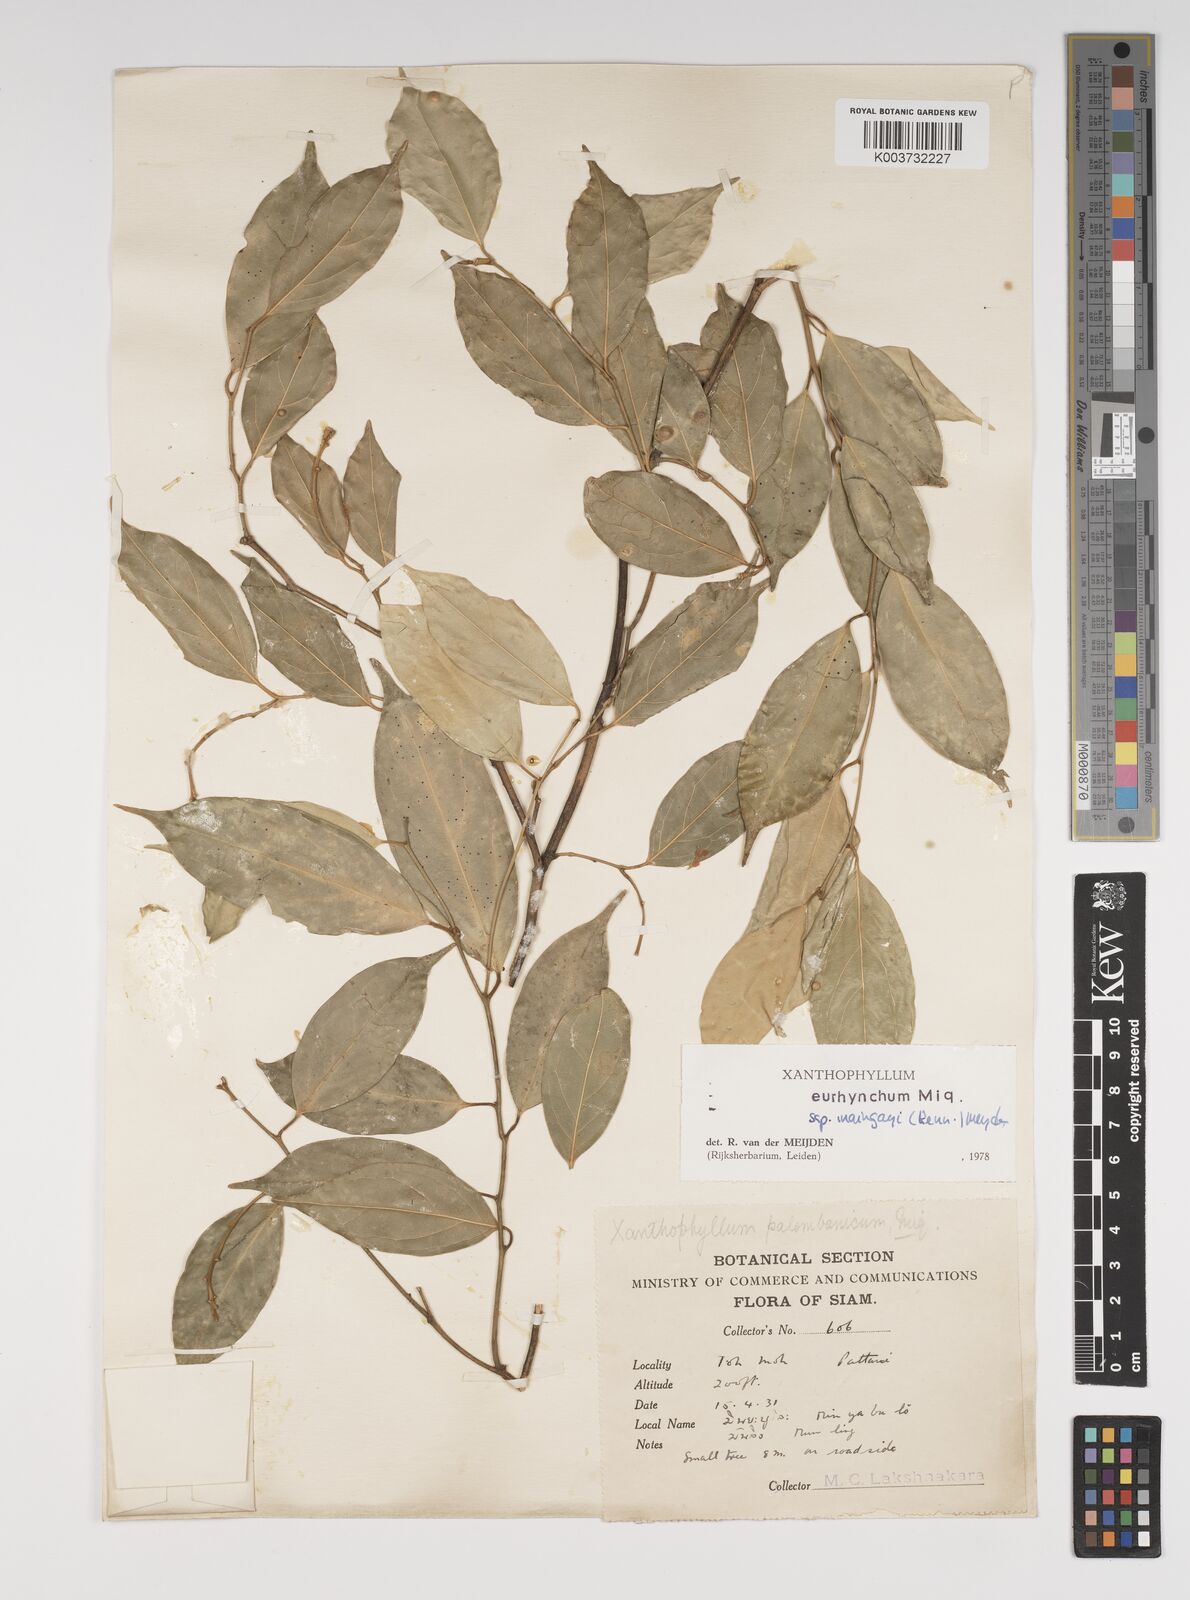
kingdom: Plantae
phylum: Tracheophyta
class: Magnoliopsida
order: Fabales
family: Polygalaceae
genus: Xanthophyllum
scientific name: Xanthophyllum eurhynchum
